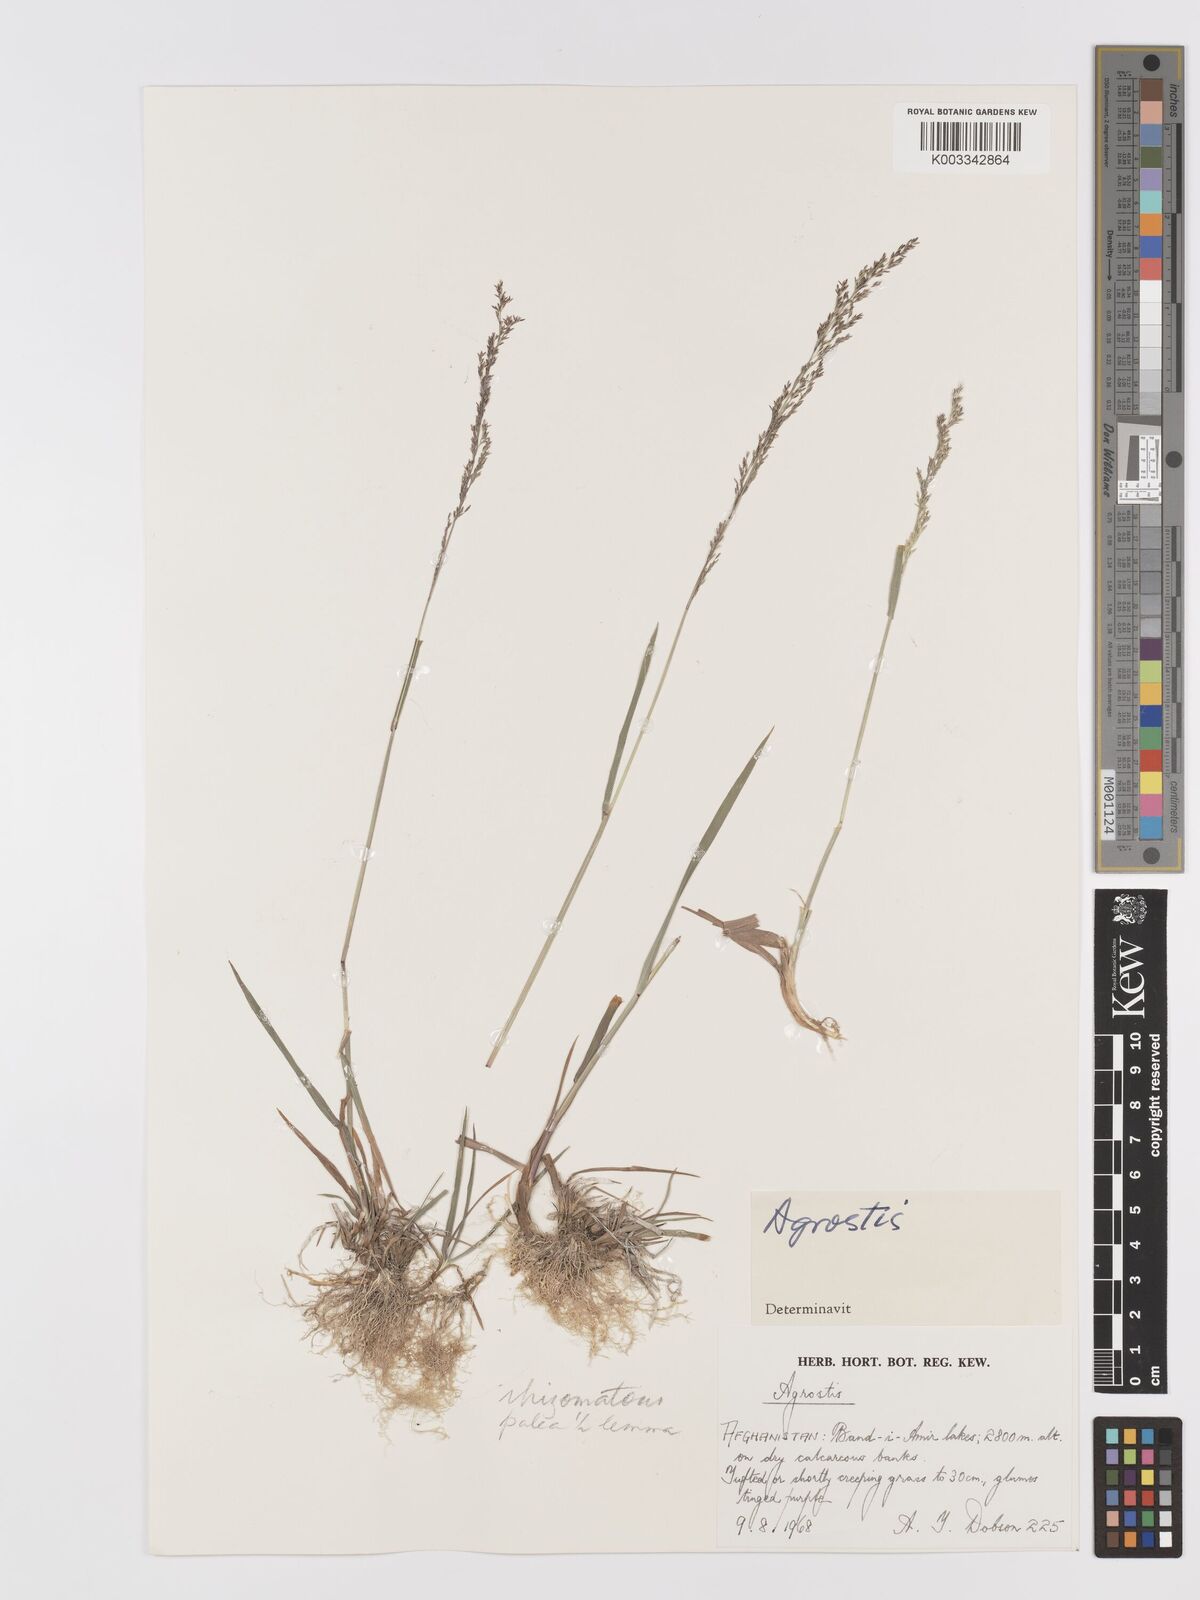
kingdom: Plantae
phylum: Tracheophyta
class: Liliopsida
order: Poales
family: Poaceae
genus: Agrostis
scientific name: Agrostis
